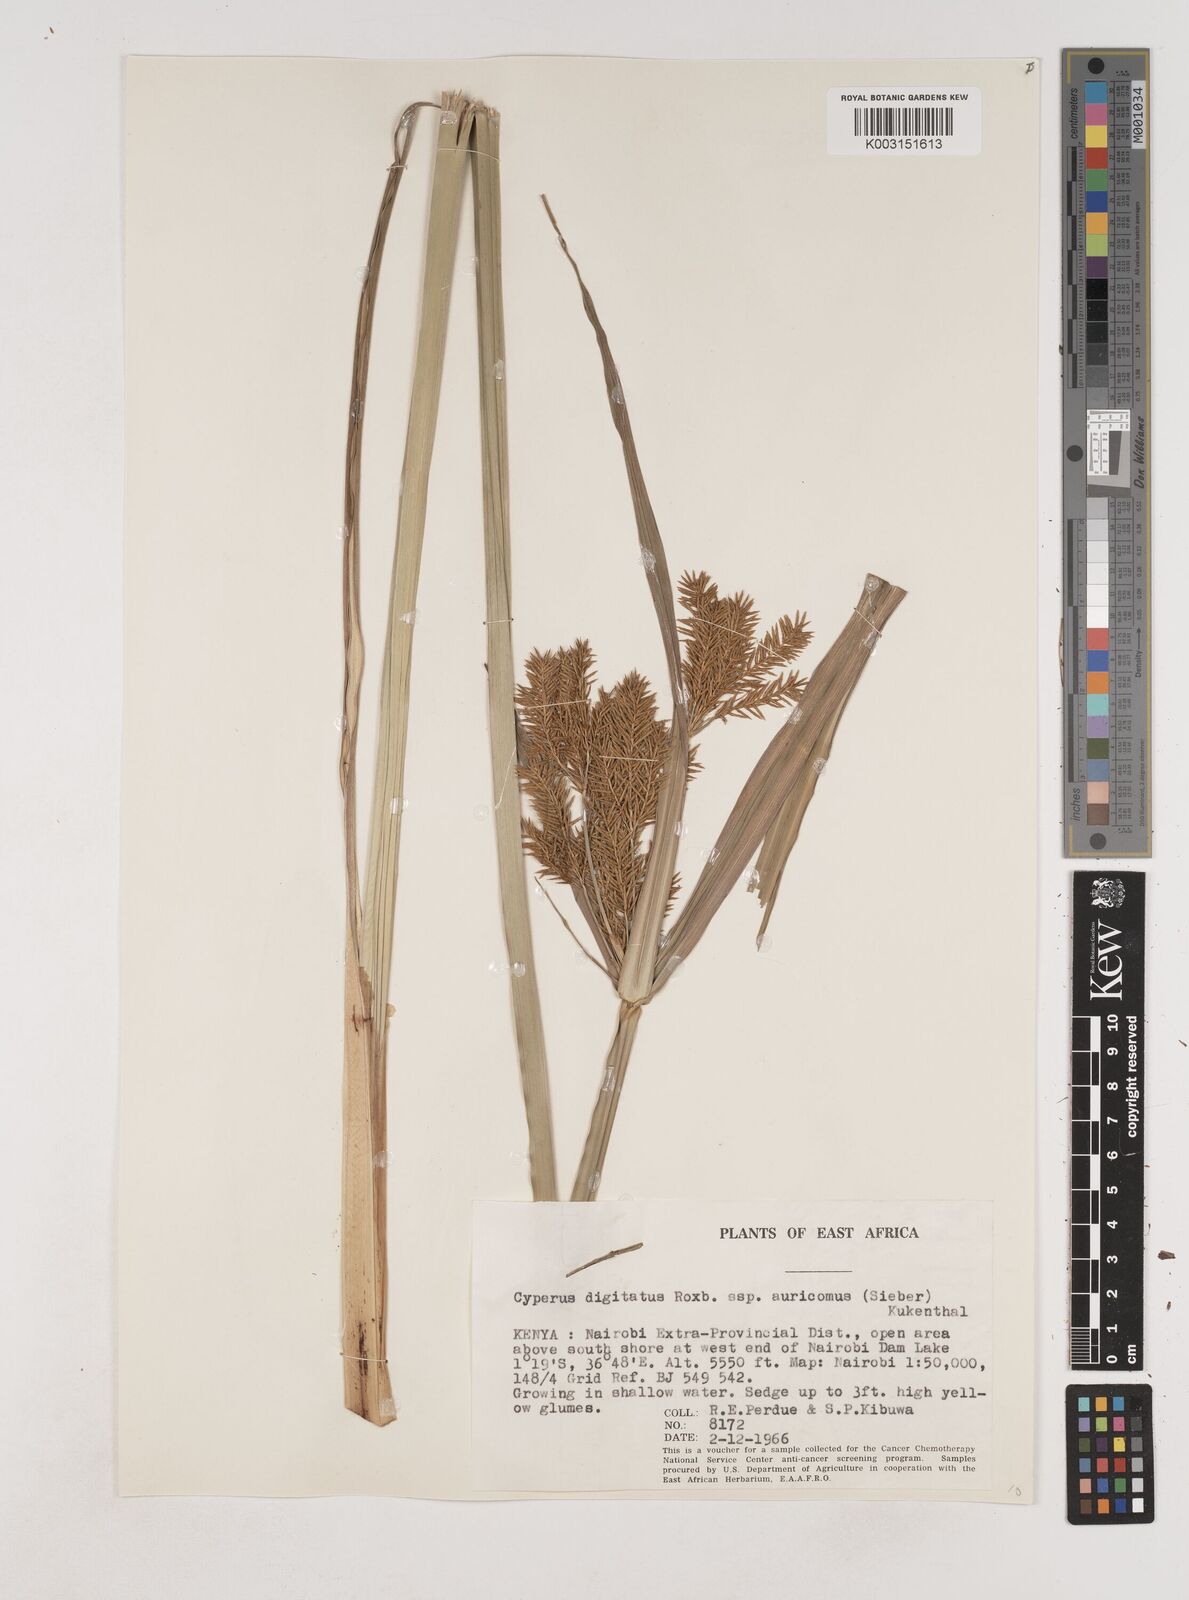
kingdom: Plantae
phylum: Tracheophyta
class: Liliopsida
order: Poales
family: Cyperaceae
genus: Cyperus
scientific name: Cyperus digitatus
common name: Finger flatsedge
